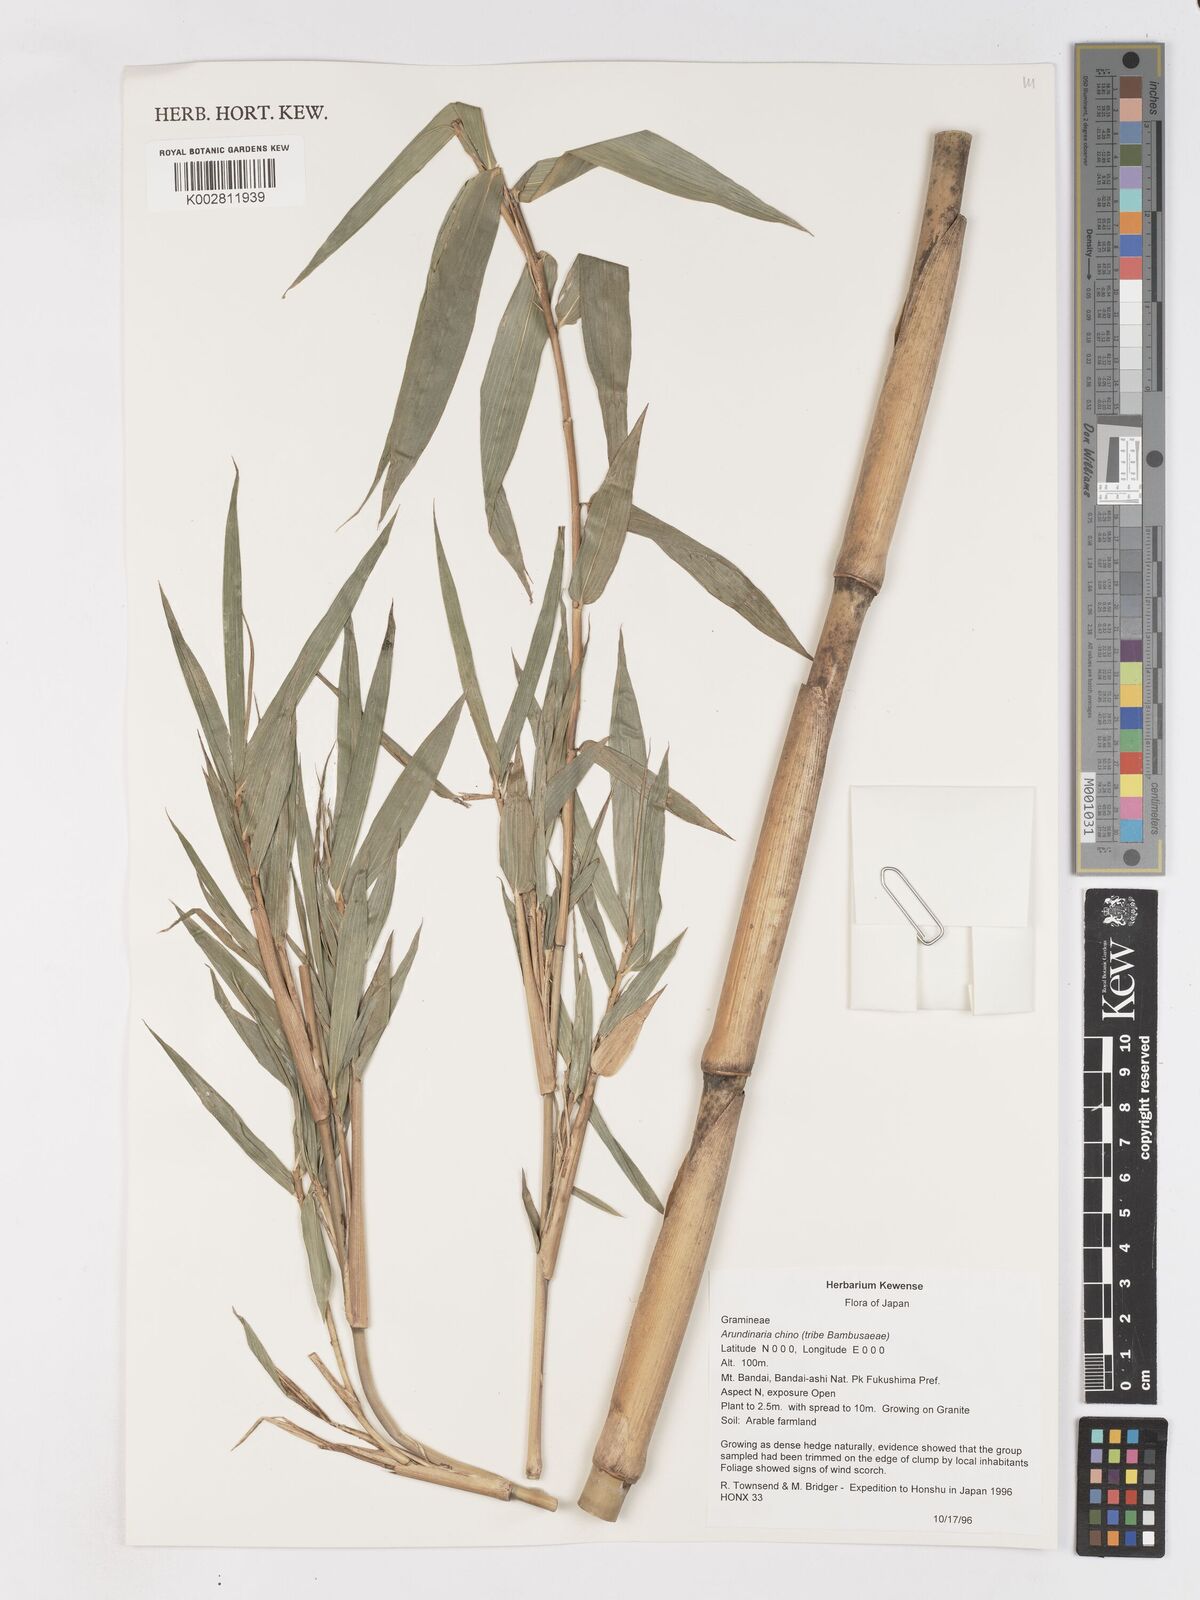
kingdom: Plantae
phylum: Tracheophyta
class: Liliopsida
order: Poales
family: Poaceae
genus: Pleioblastus
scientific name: Pleioblastus argenteostriatus
